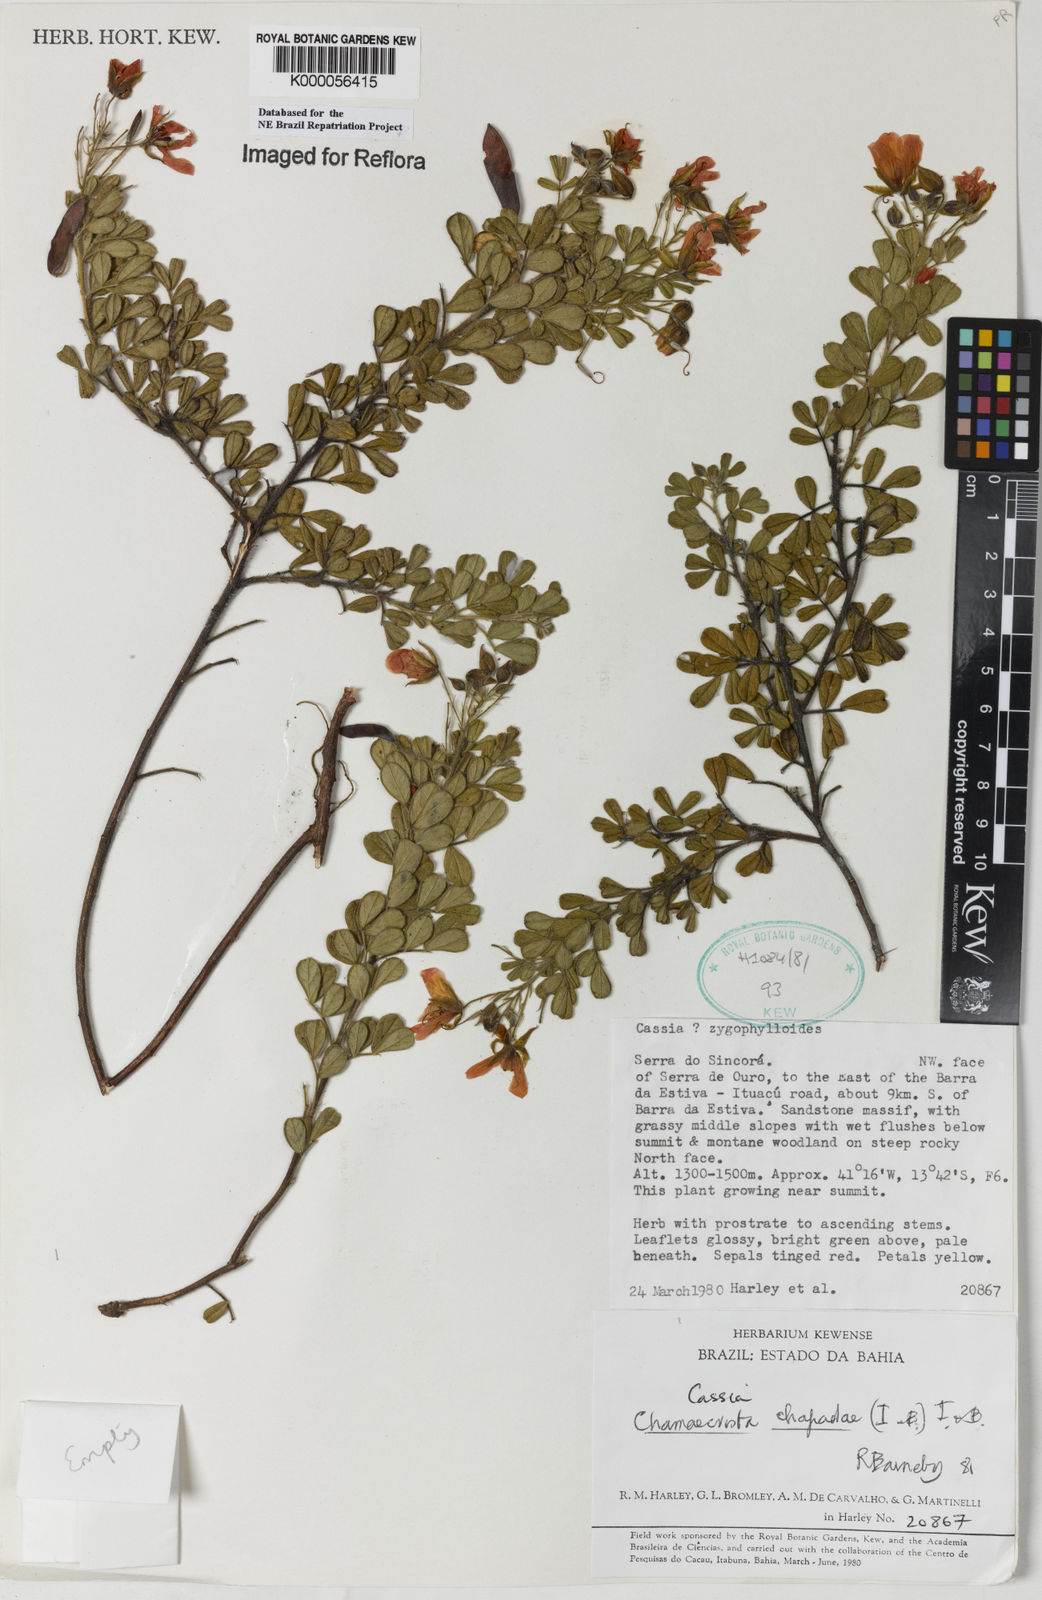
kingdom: Plantae
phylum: Tracheophyta
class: Magnoliopsida
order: Fabales
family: Fabaceae
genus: Chamaecrista
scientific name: Chamaecrista chapadae
